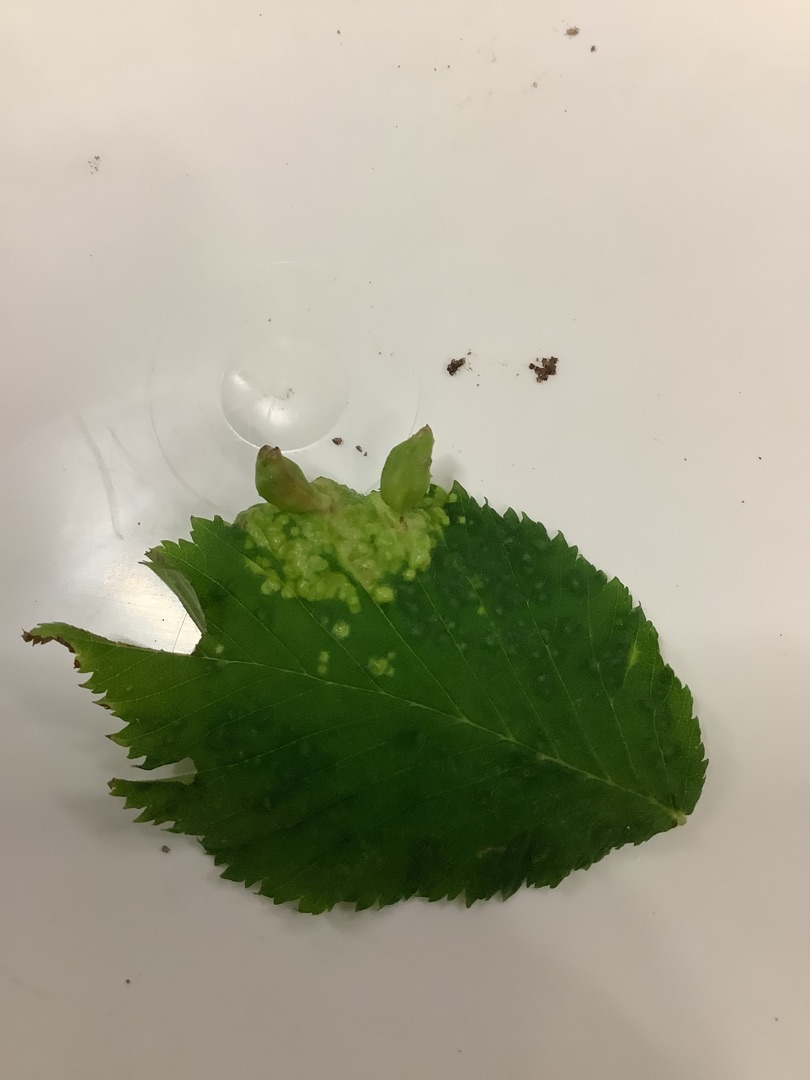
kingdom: Animalia
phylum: Arthropoda
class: Insecta
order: Hemiptera
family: Aphididae
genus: Tetraneura
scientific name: Tetraneura ulmi
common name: Elmegallelus
